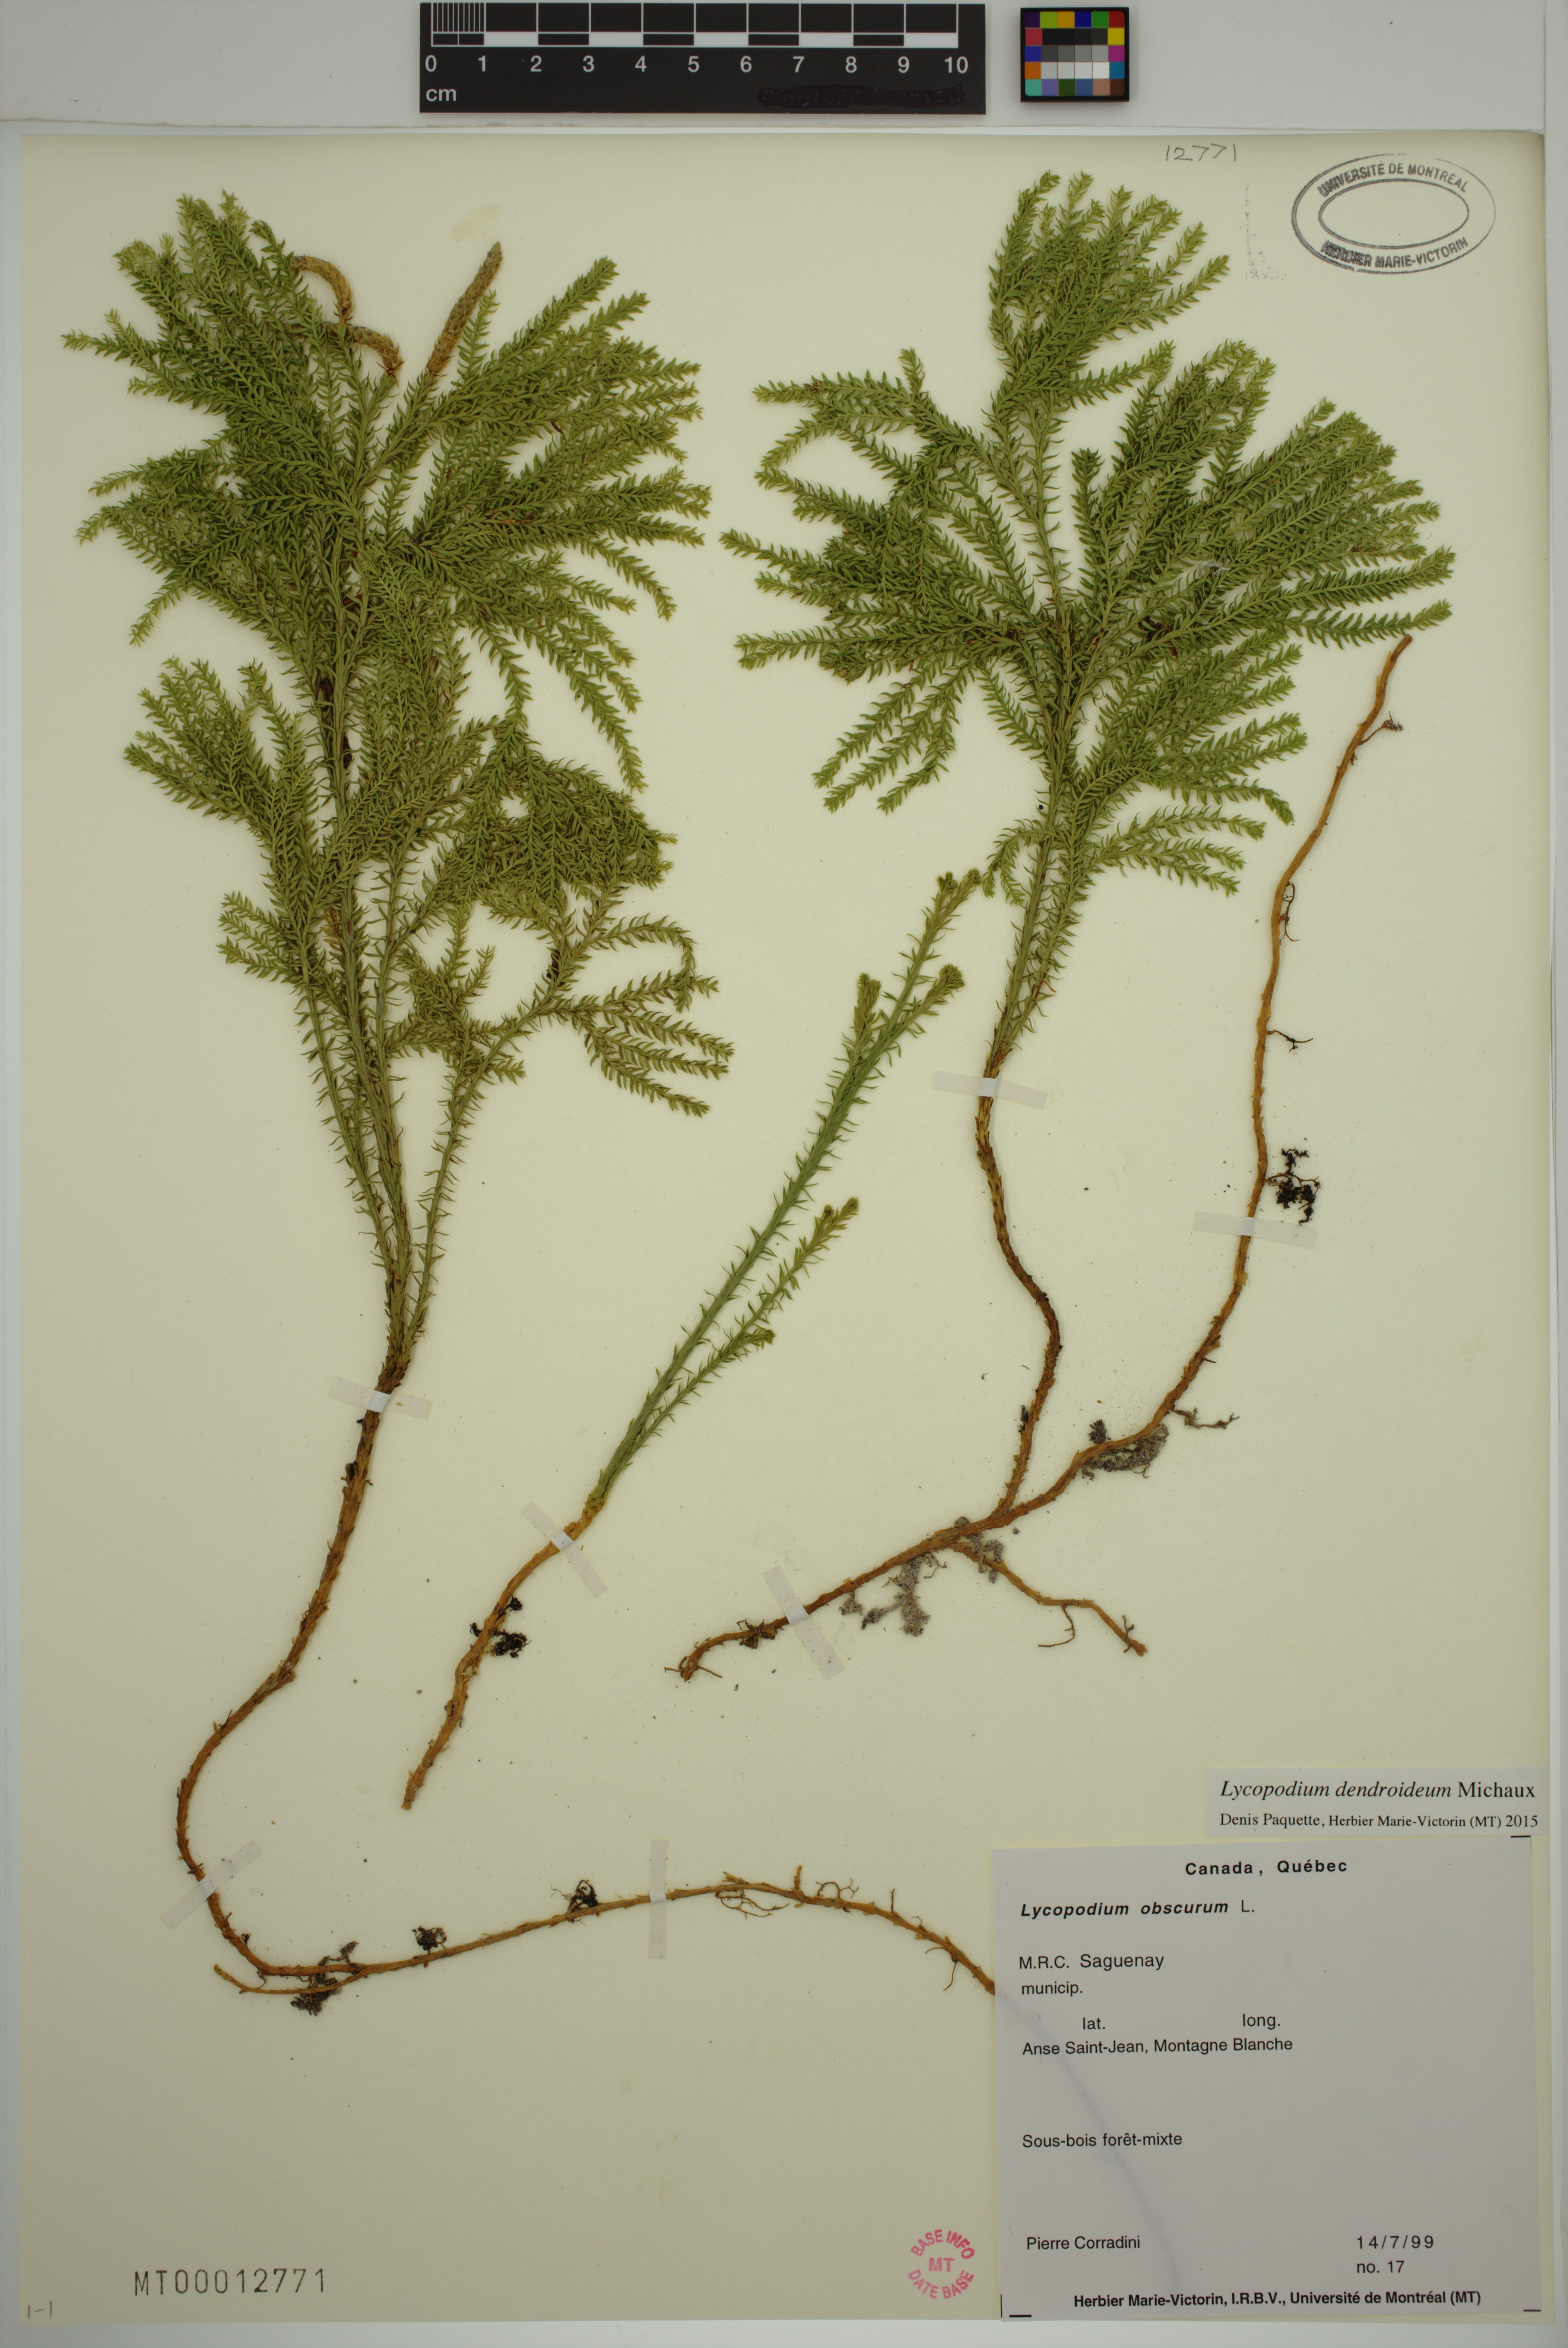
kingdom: Plantae
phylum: Tracheophyta
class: Lycopodiopsida
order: Lycopodiales
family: Lycopodiaceae
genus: Dendrolycopodium
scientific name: Dendrolycopodium dendroideum
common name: Northern tree-clubmoss
